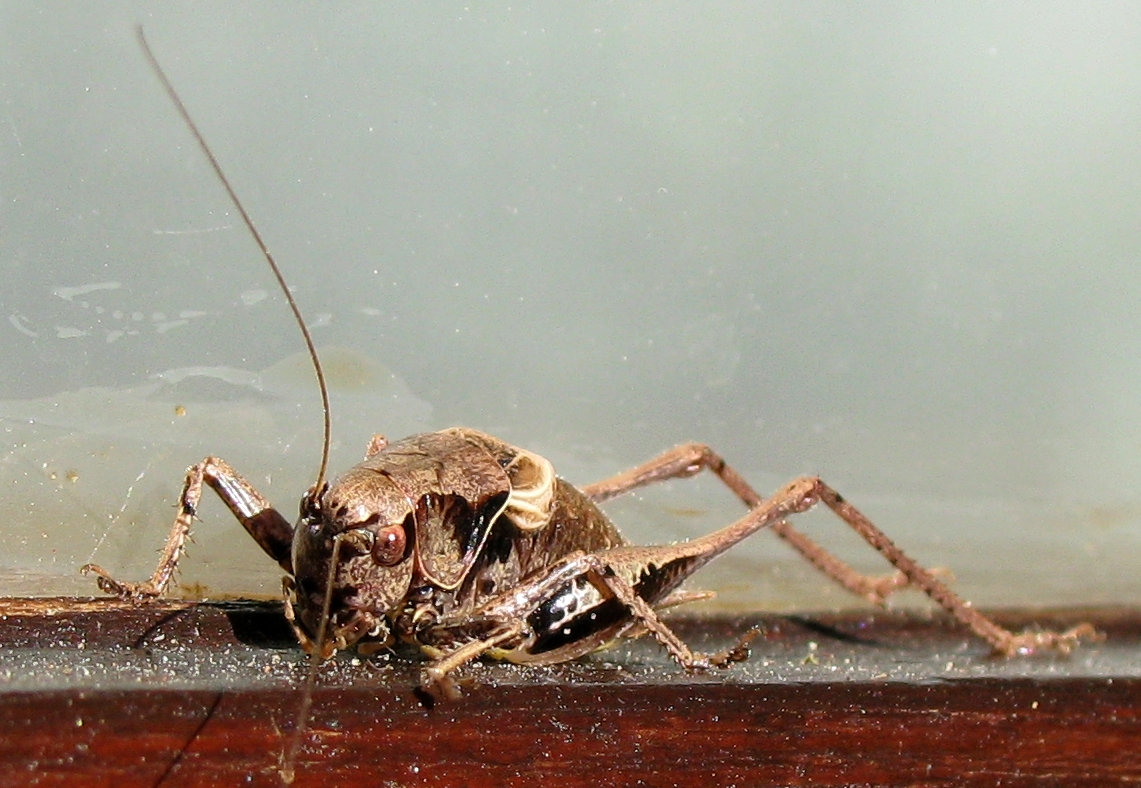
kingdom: Animalia
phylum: Arthropoda
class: Insecta
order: Orthoptera
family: Tettigoniidae
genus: Pholidoptera
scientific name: Pholidoptera griseoaptera
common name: Dark bush-cricket
